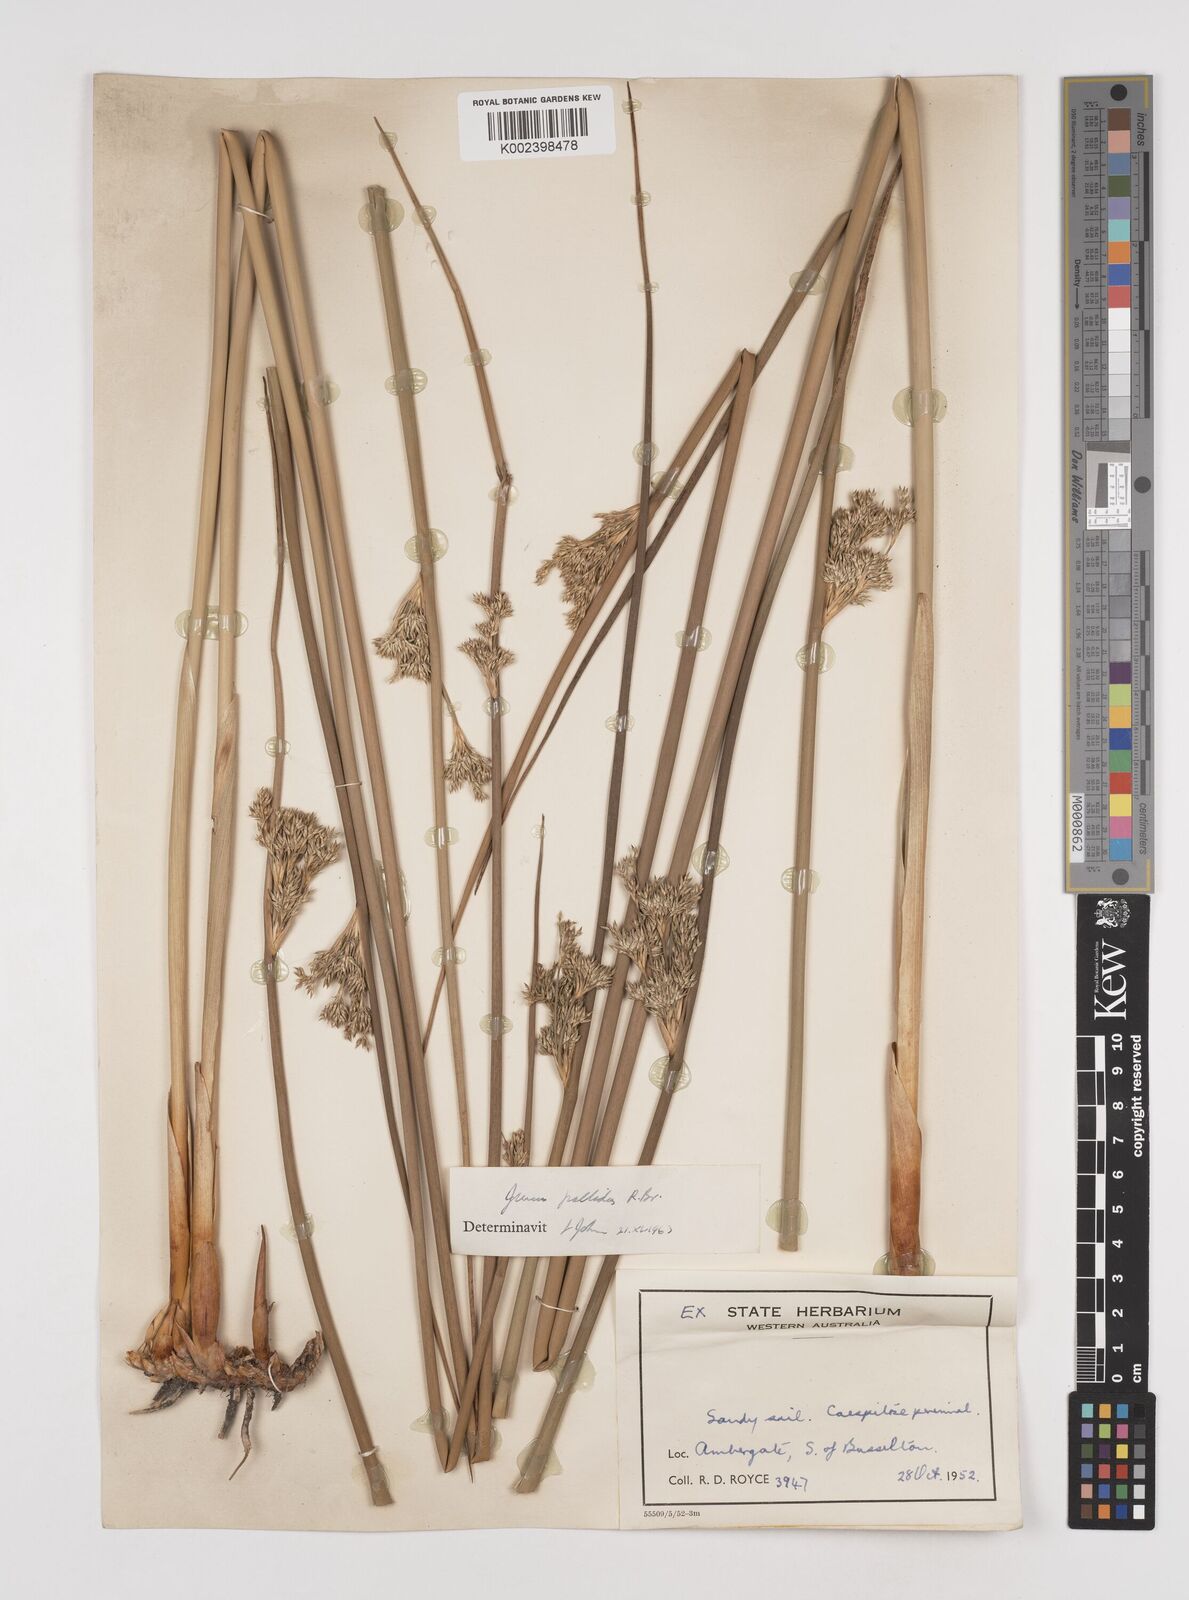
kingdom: Plantae
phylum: Tracheophyta
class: Liliopsida
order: Poales
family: Juncaceae
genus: Juncus
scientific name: Juncus pallidus
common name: Great soft-rush
